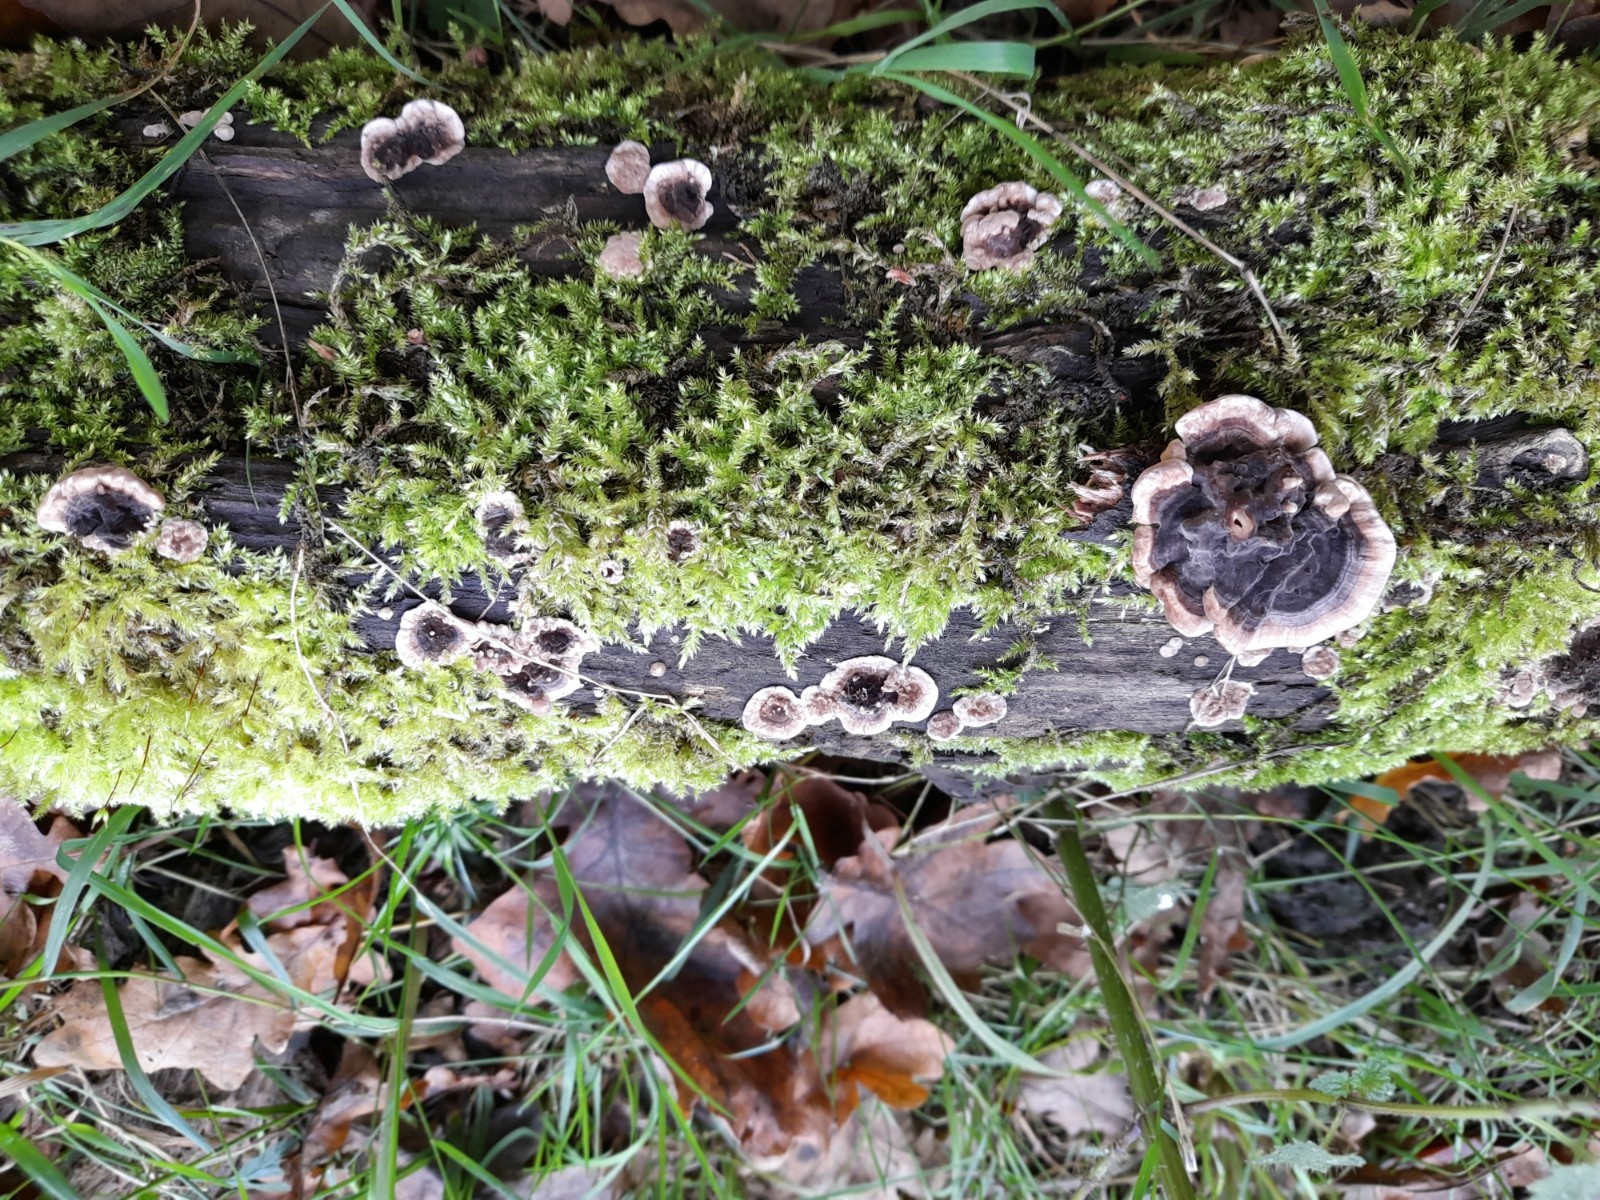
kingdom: Fungi
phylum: Basidiomycota
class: Agaricomycetes
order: Polyporales
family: Polyporaceae
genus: Trametes
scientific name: Trametes versicolor
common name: broget læderporesvamp
